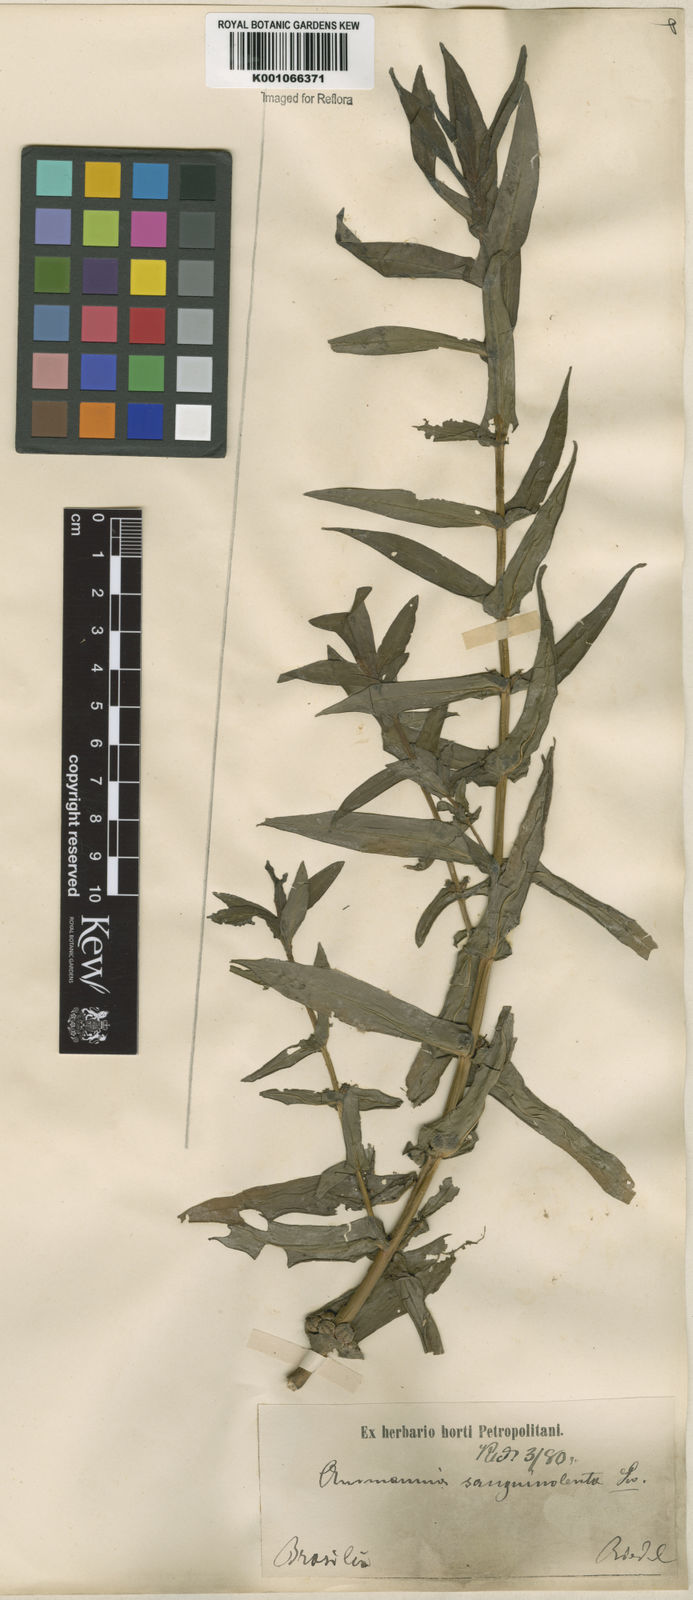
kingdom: Plantae
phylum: Tracheophyta
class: Magnoliopsida
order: Myrtales
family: Lythraceae
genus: Ammannia
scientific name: Ammannia coccinea
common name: Valley redstem
